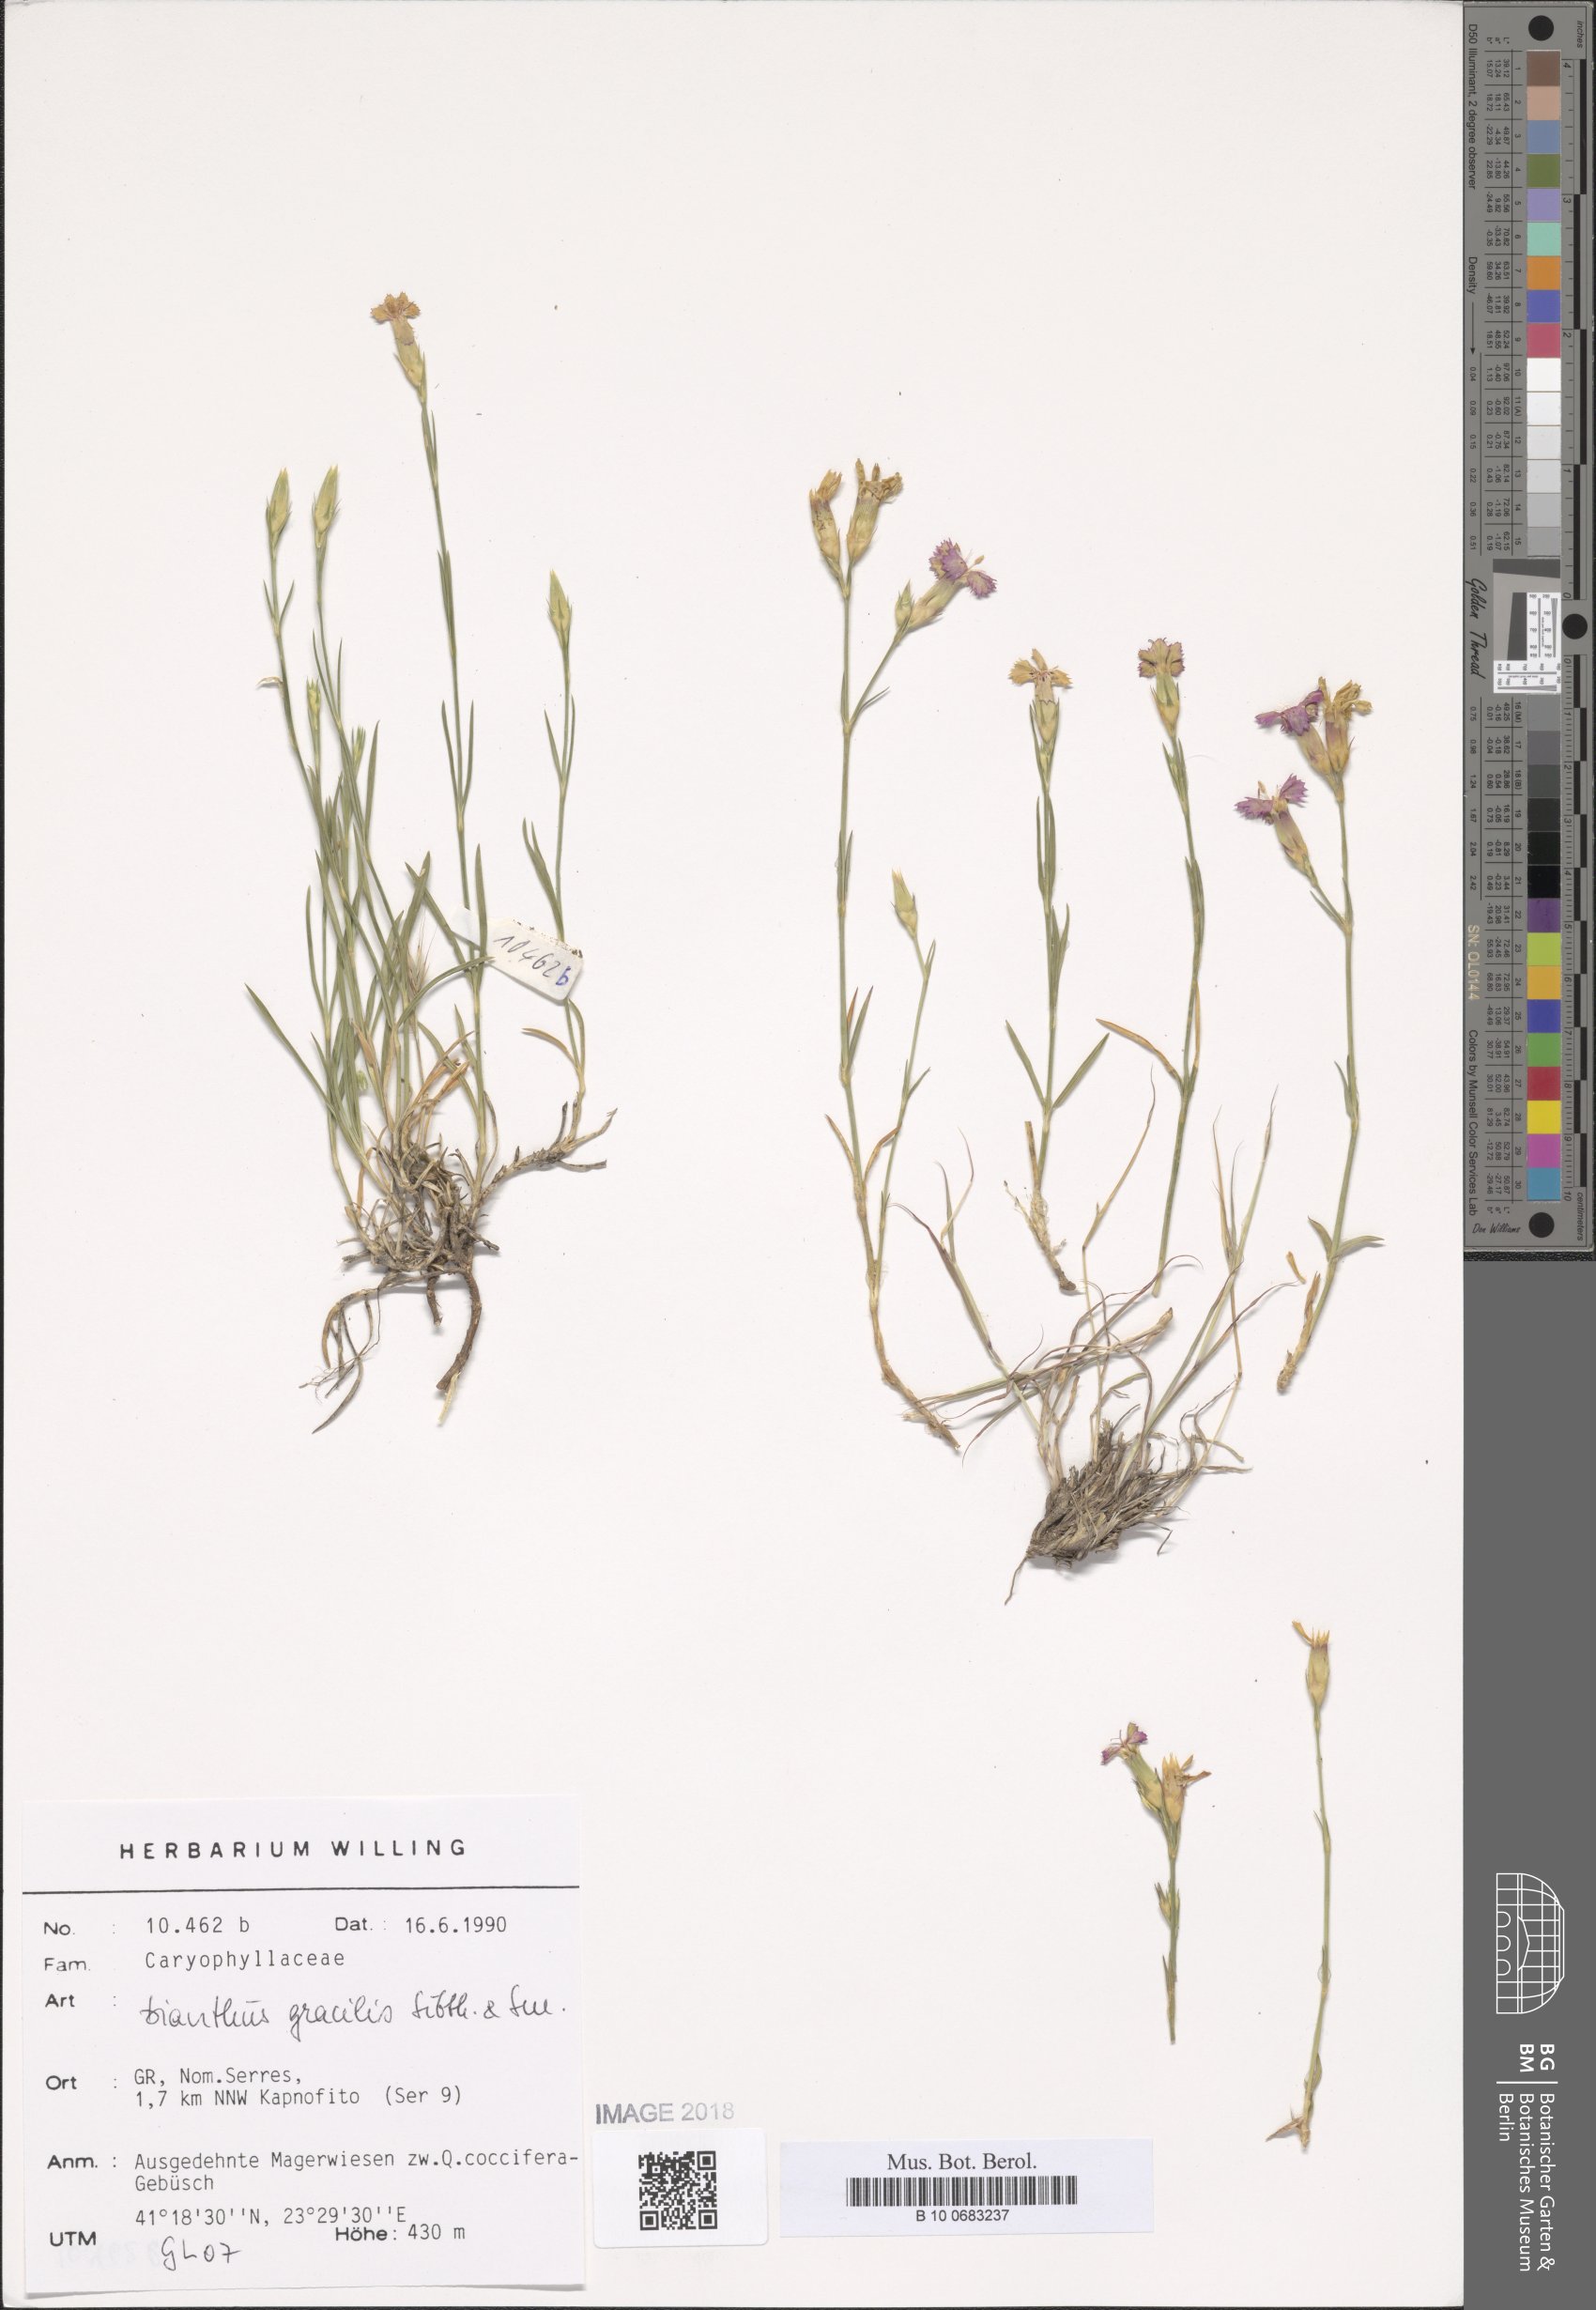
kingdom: Plantae
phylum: Tracheophyta
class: Magnoliopsida
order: Caryophyllales
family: Caryophyllaceae
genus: Dianthus
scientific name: Dianthus gracilis
